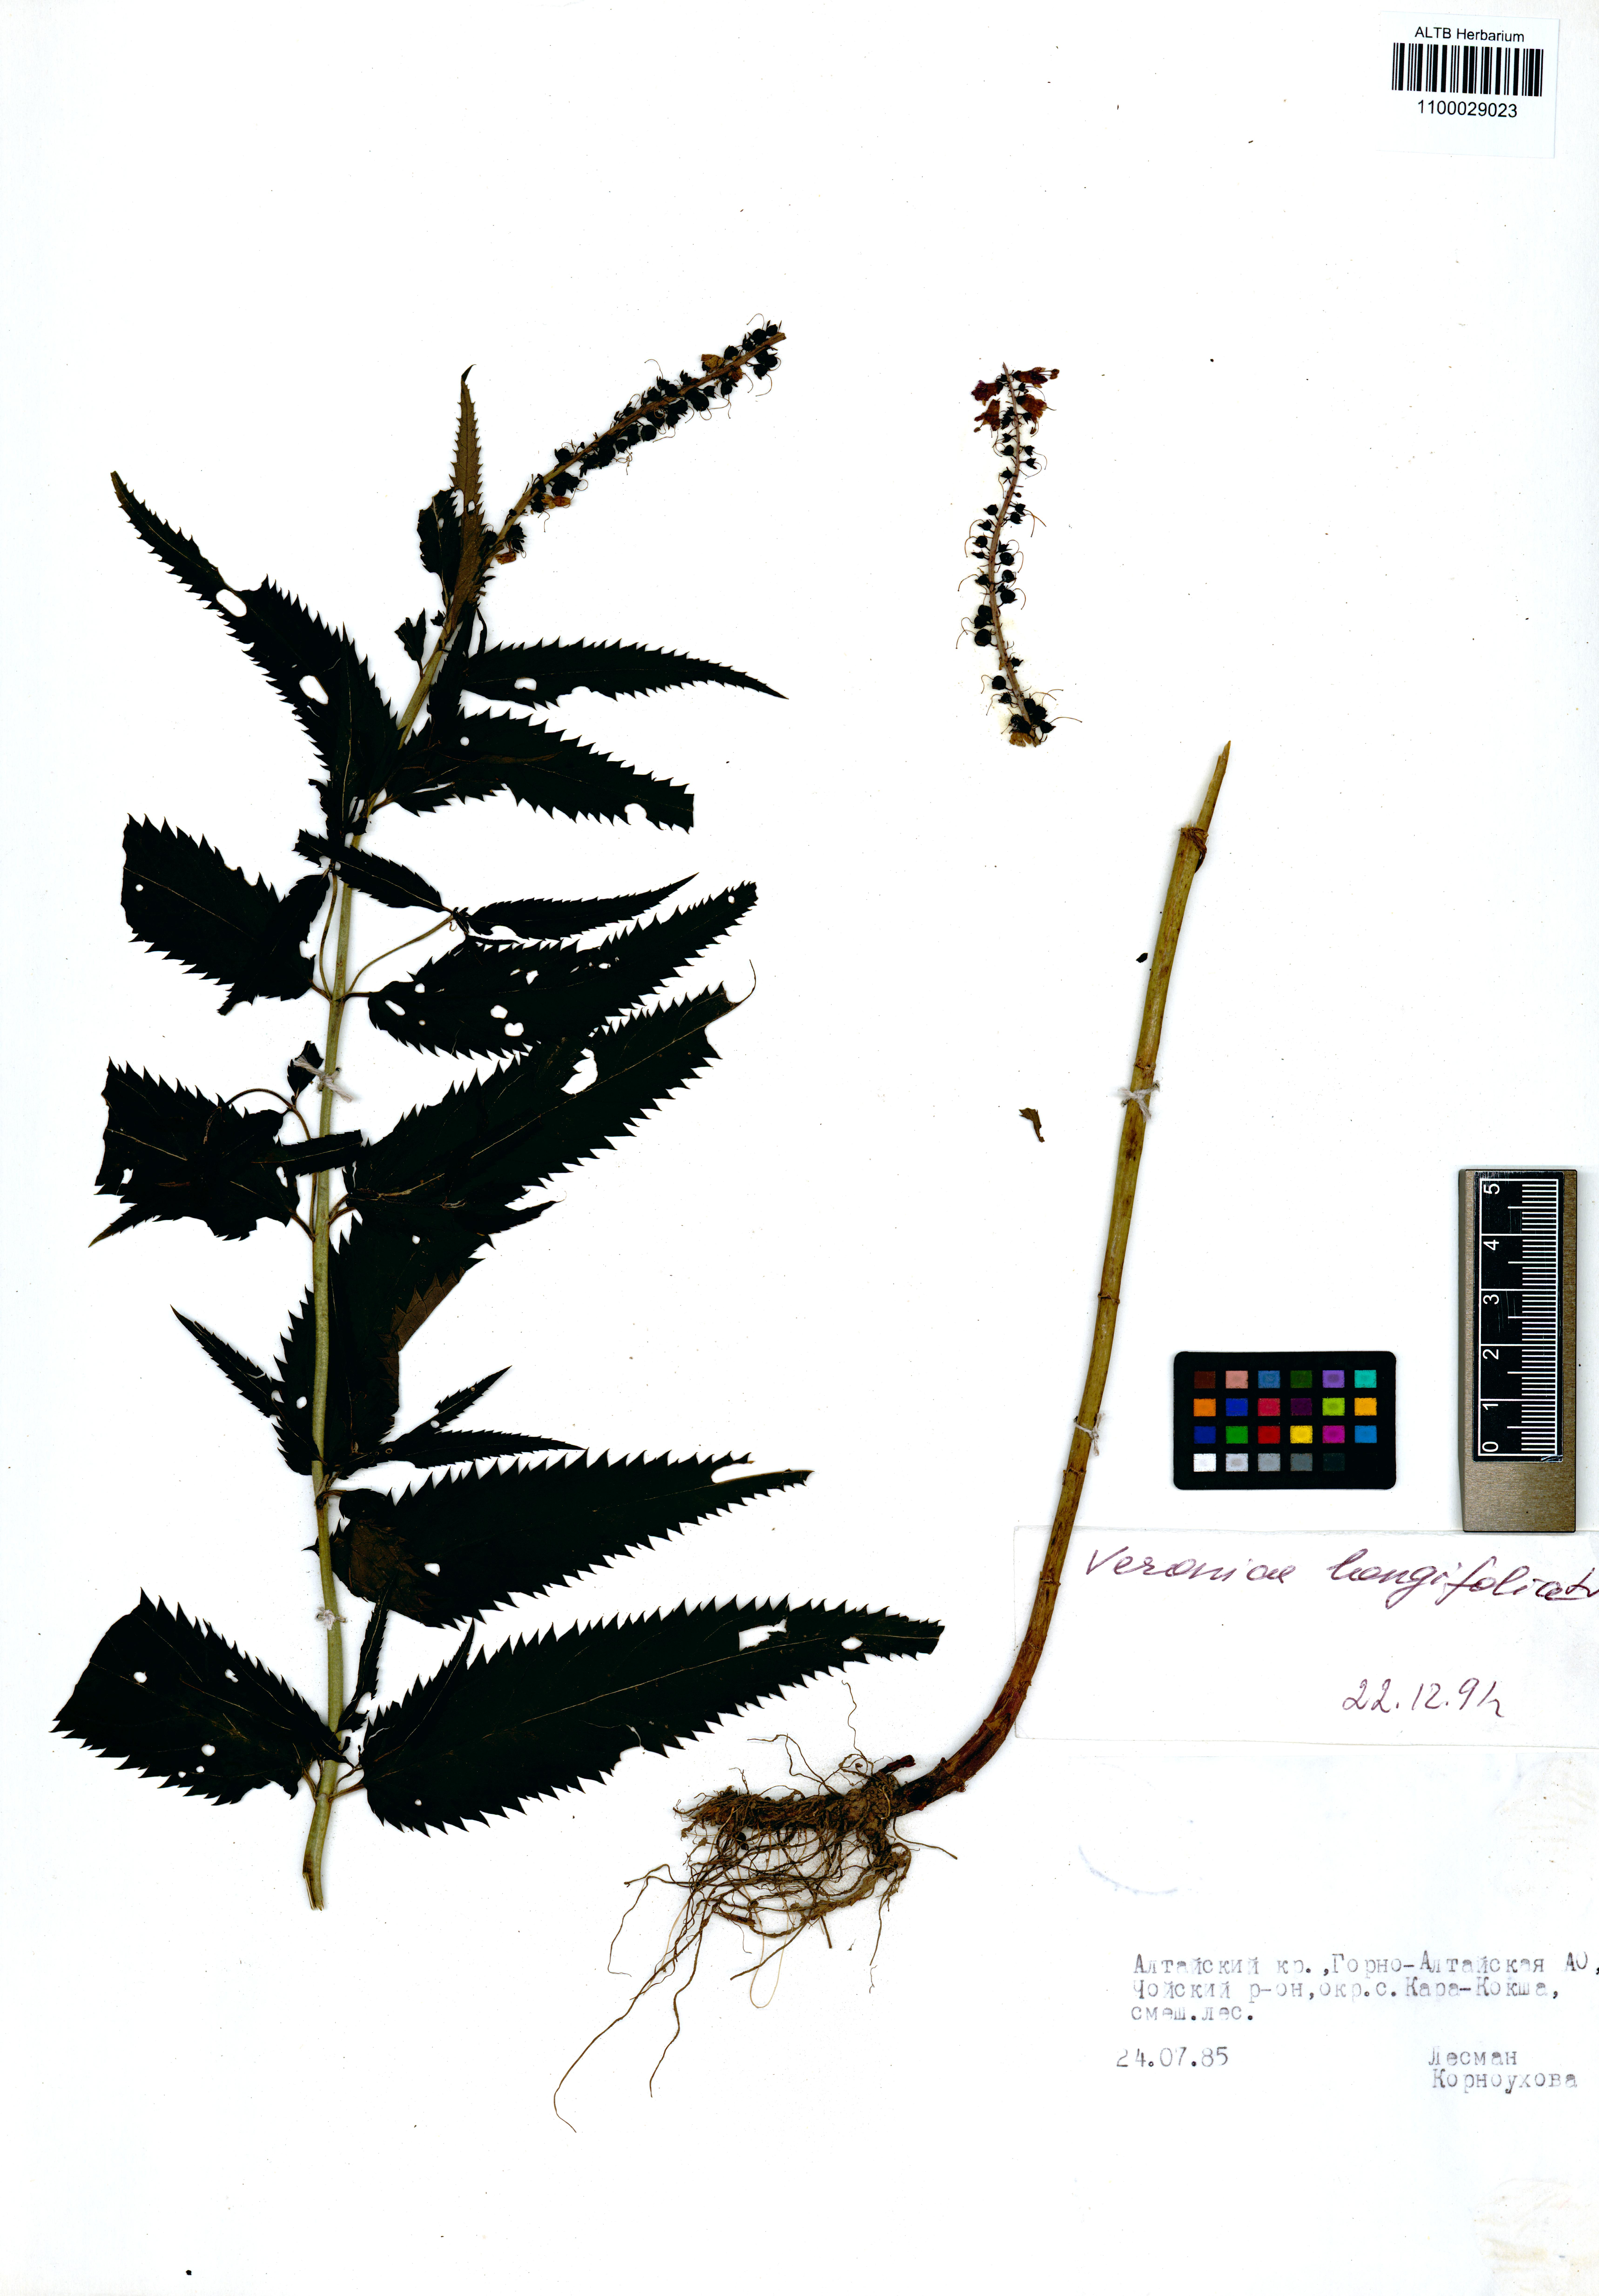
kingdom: Plantae
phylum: Tracheophyta
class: Magnoliopsida
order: Lamiales
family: Plantaginaceae
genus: Veronica
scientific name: Veronica longifolia
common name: Garden speedwell
